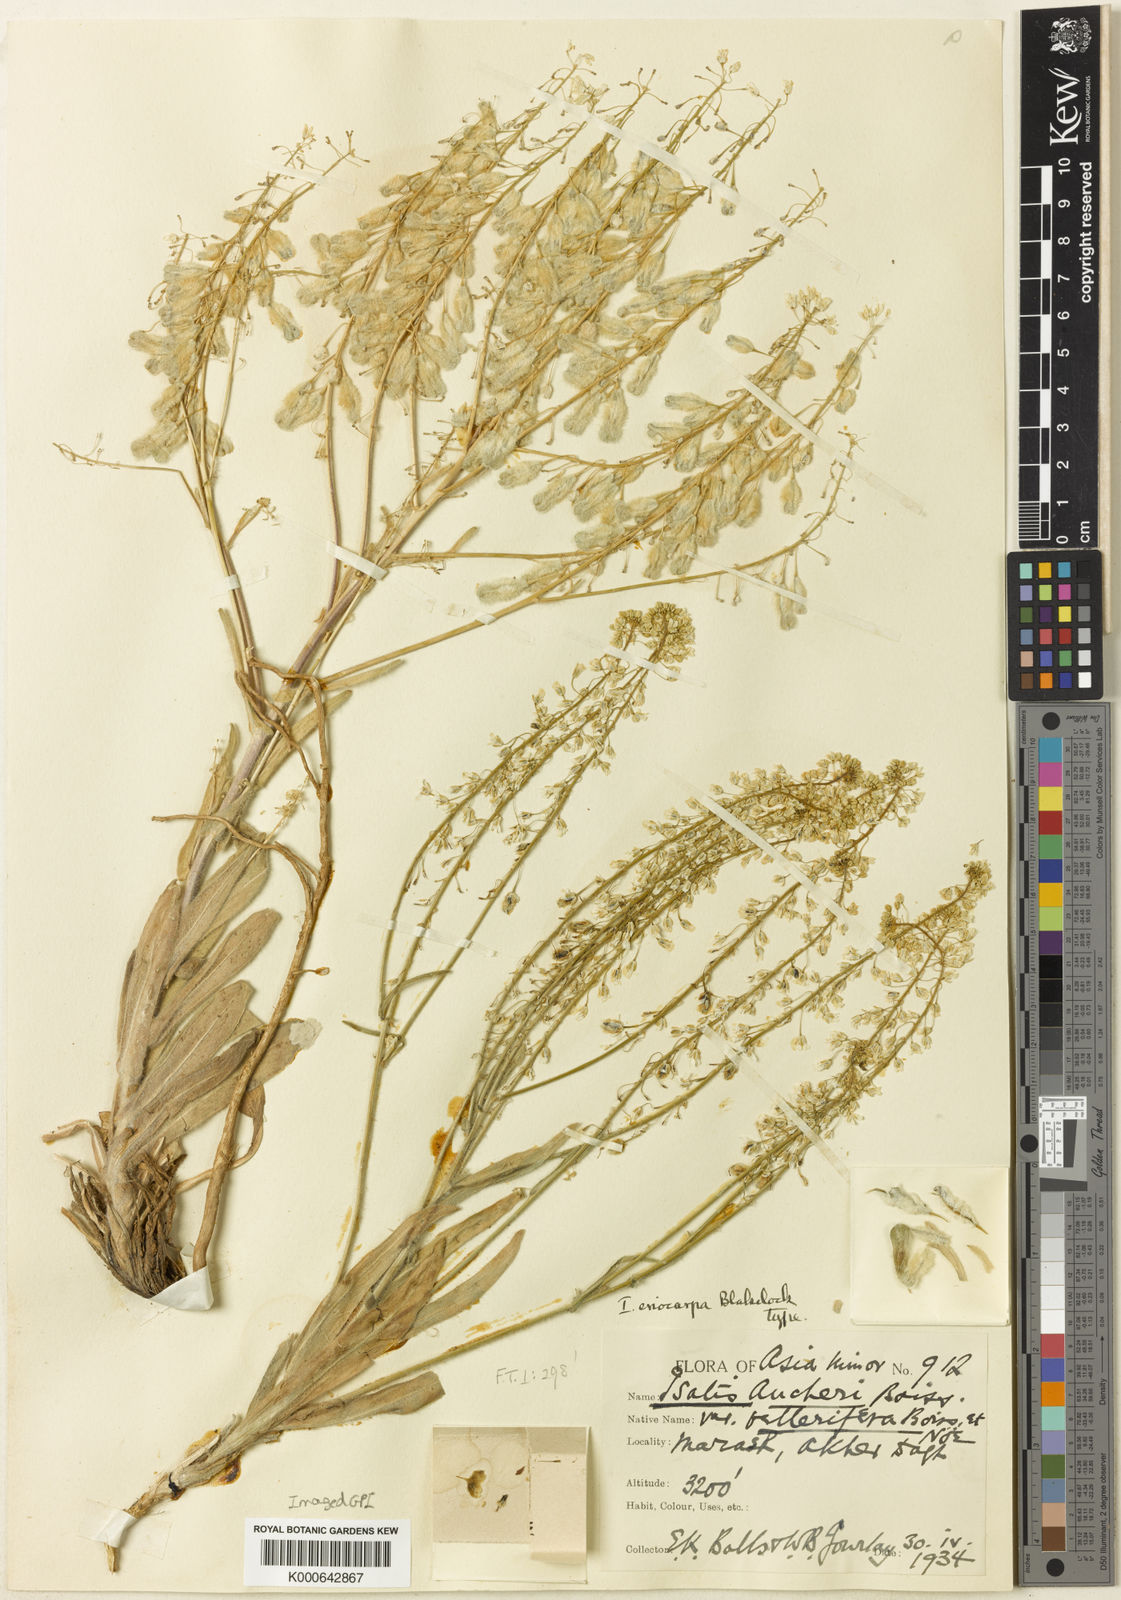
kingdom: Plantae
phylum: Tracheophyta
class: Magnoliopsida
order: Brassicales
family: Brassicaceae
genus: Isatis
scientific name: Isatis aucheri
